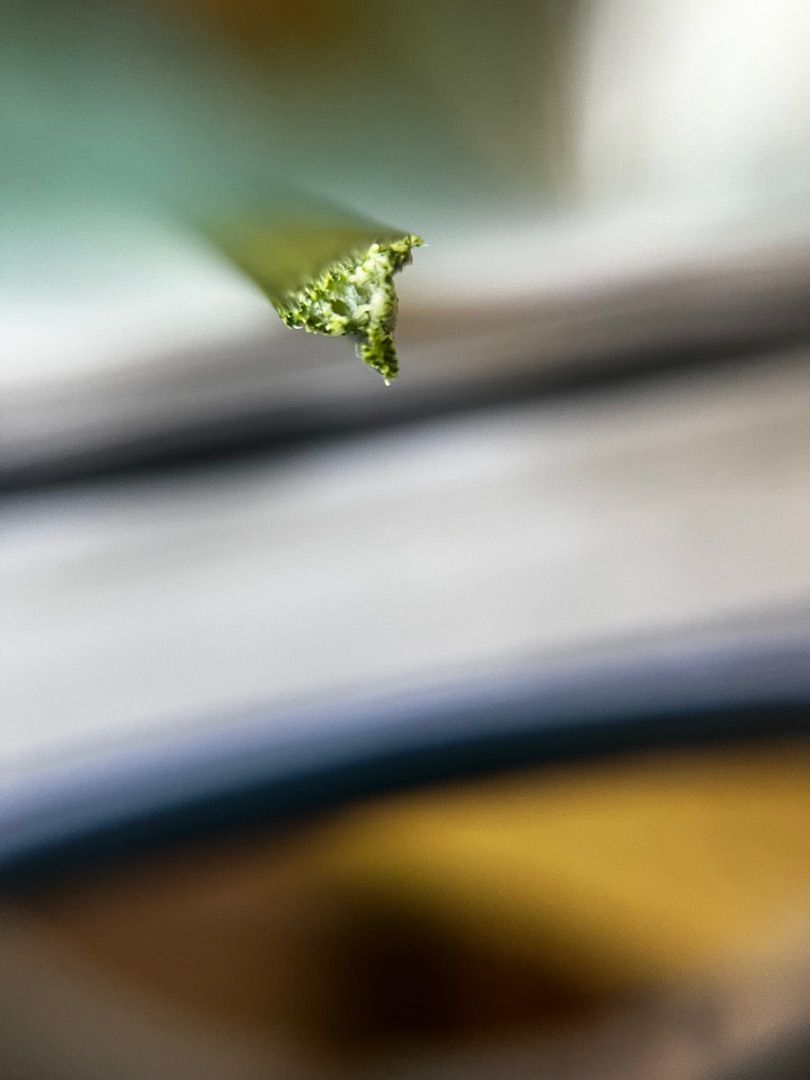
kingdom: Plantae
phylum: Tracheophyta
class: Liliopsida
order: Poales
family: Cyperaceae
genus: Bolboschoenus
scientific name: Bolboschoenus maritimus
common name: Strand-kogleaks
